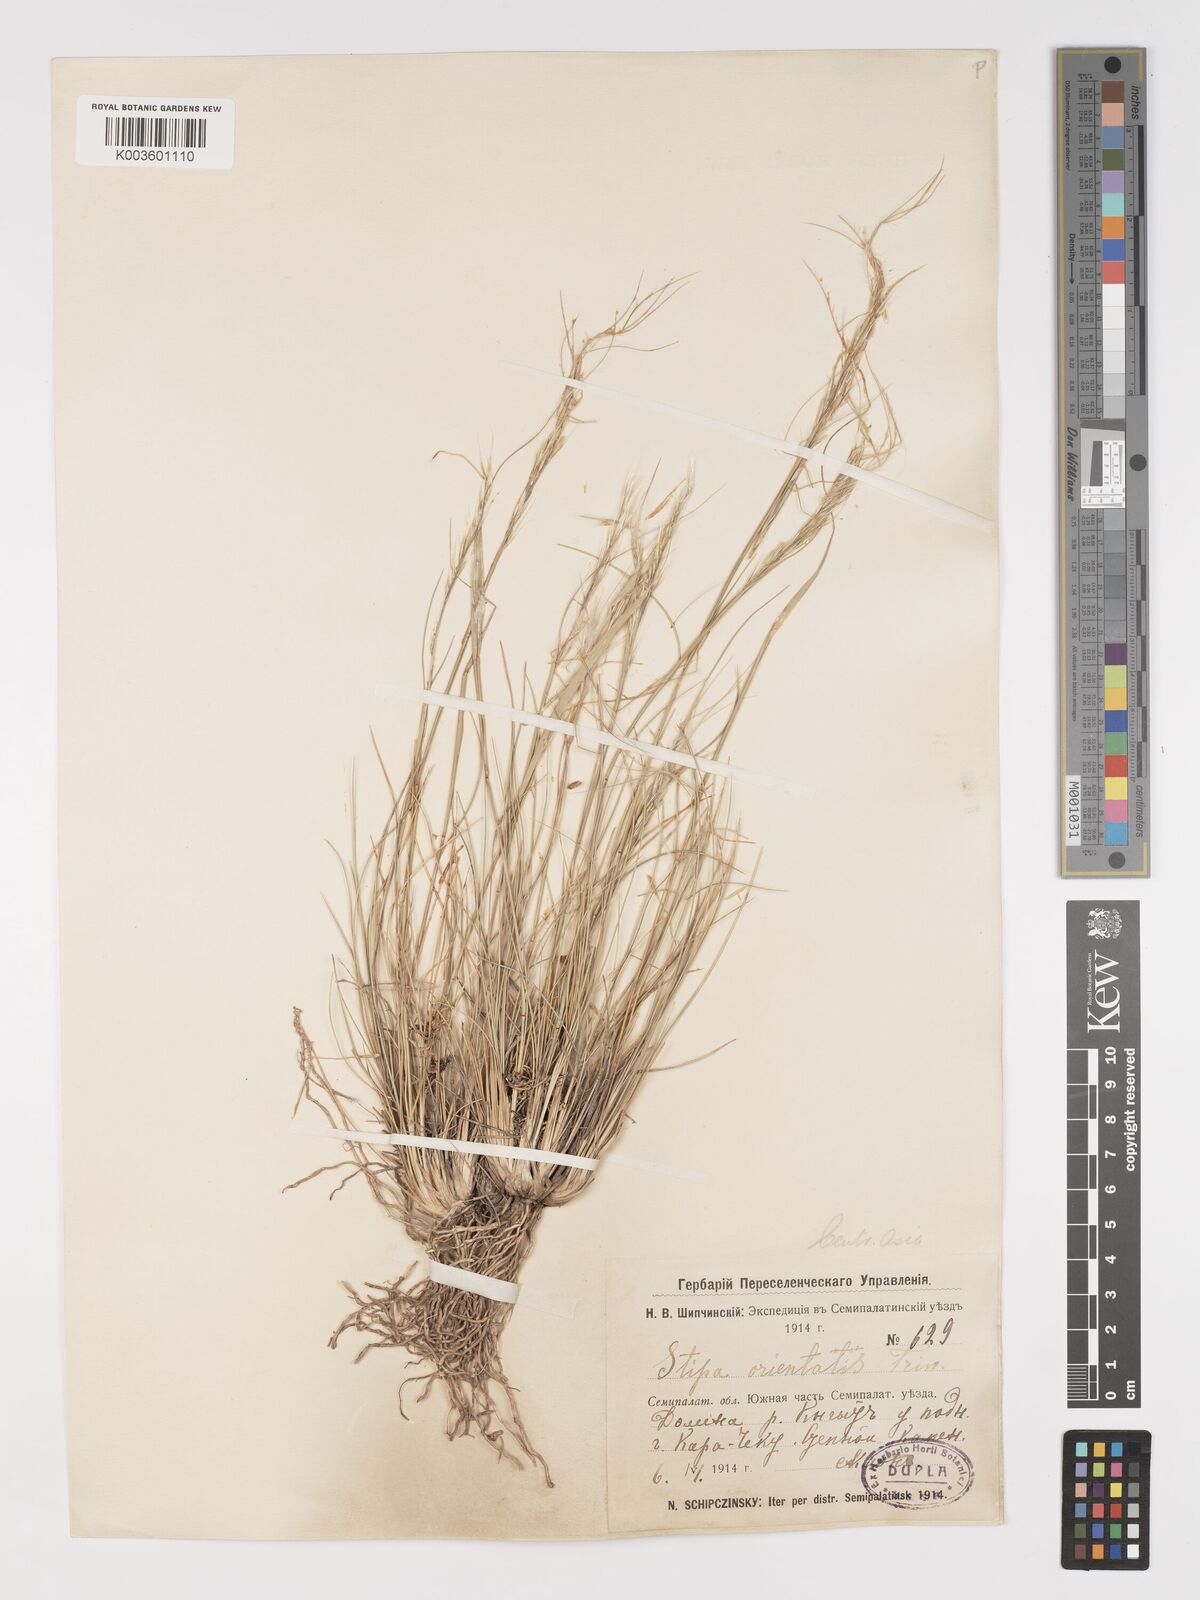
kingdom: Plantae
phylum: Tracheophyta
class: Liliopsida
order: Poales
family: Poaceae
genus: Stipa
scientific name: Stipa orientalis
